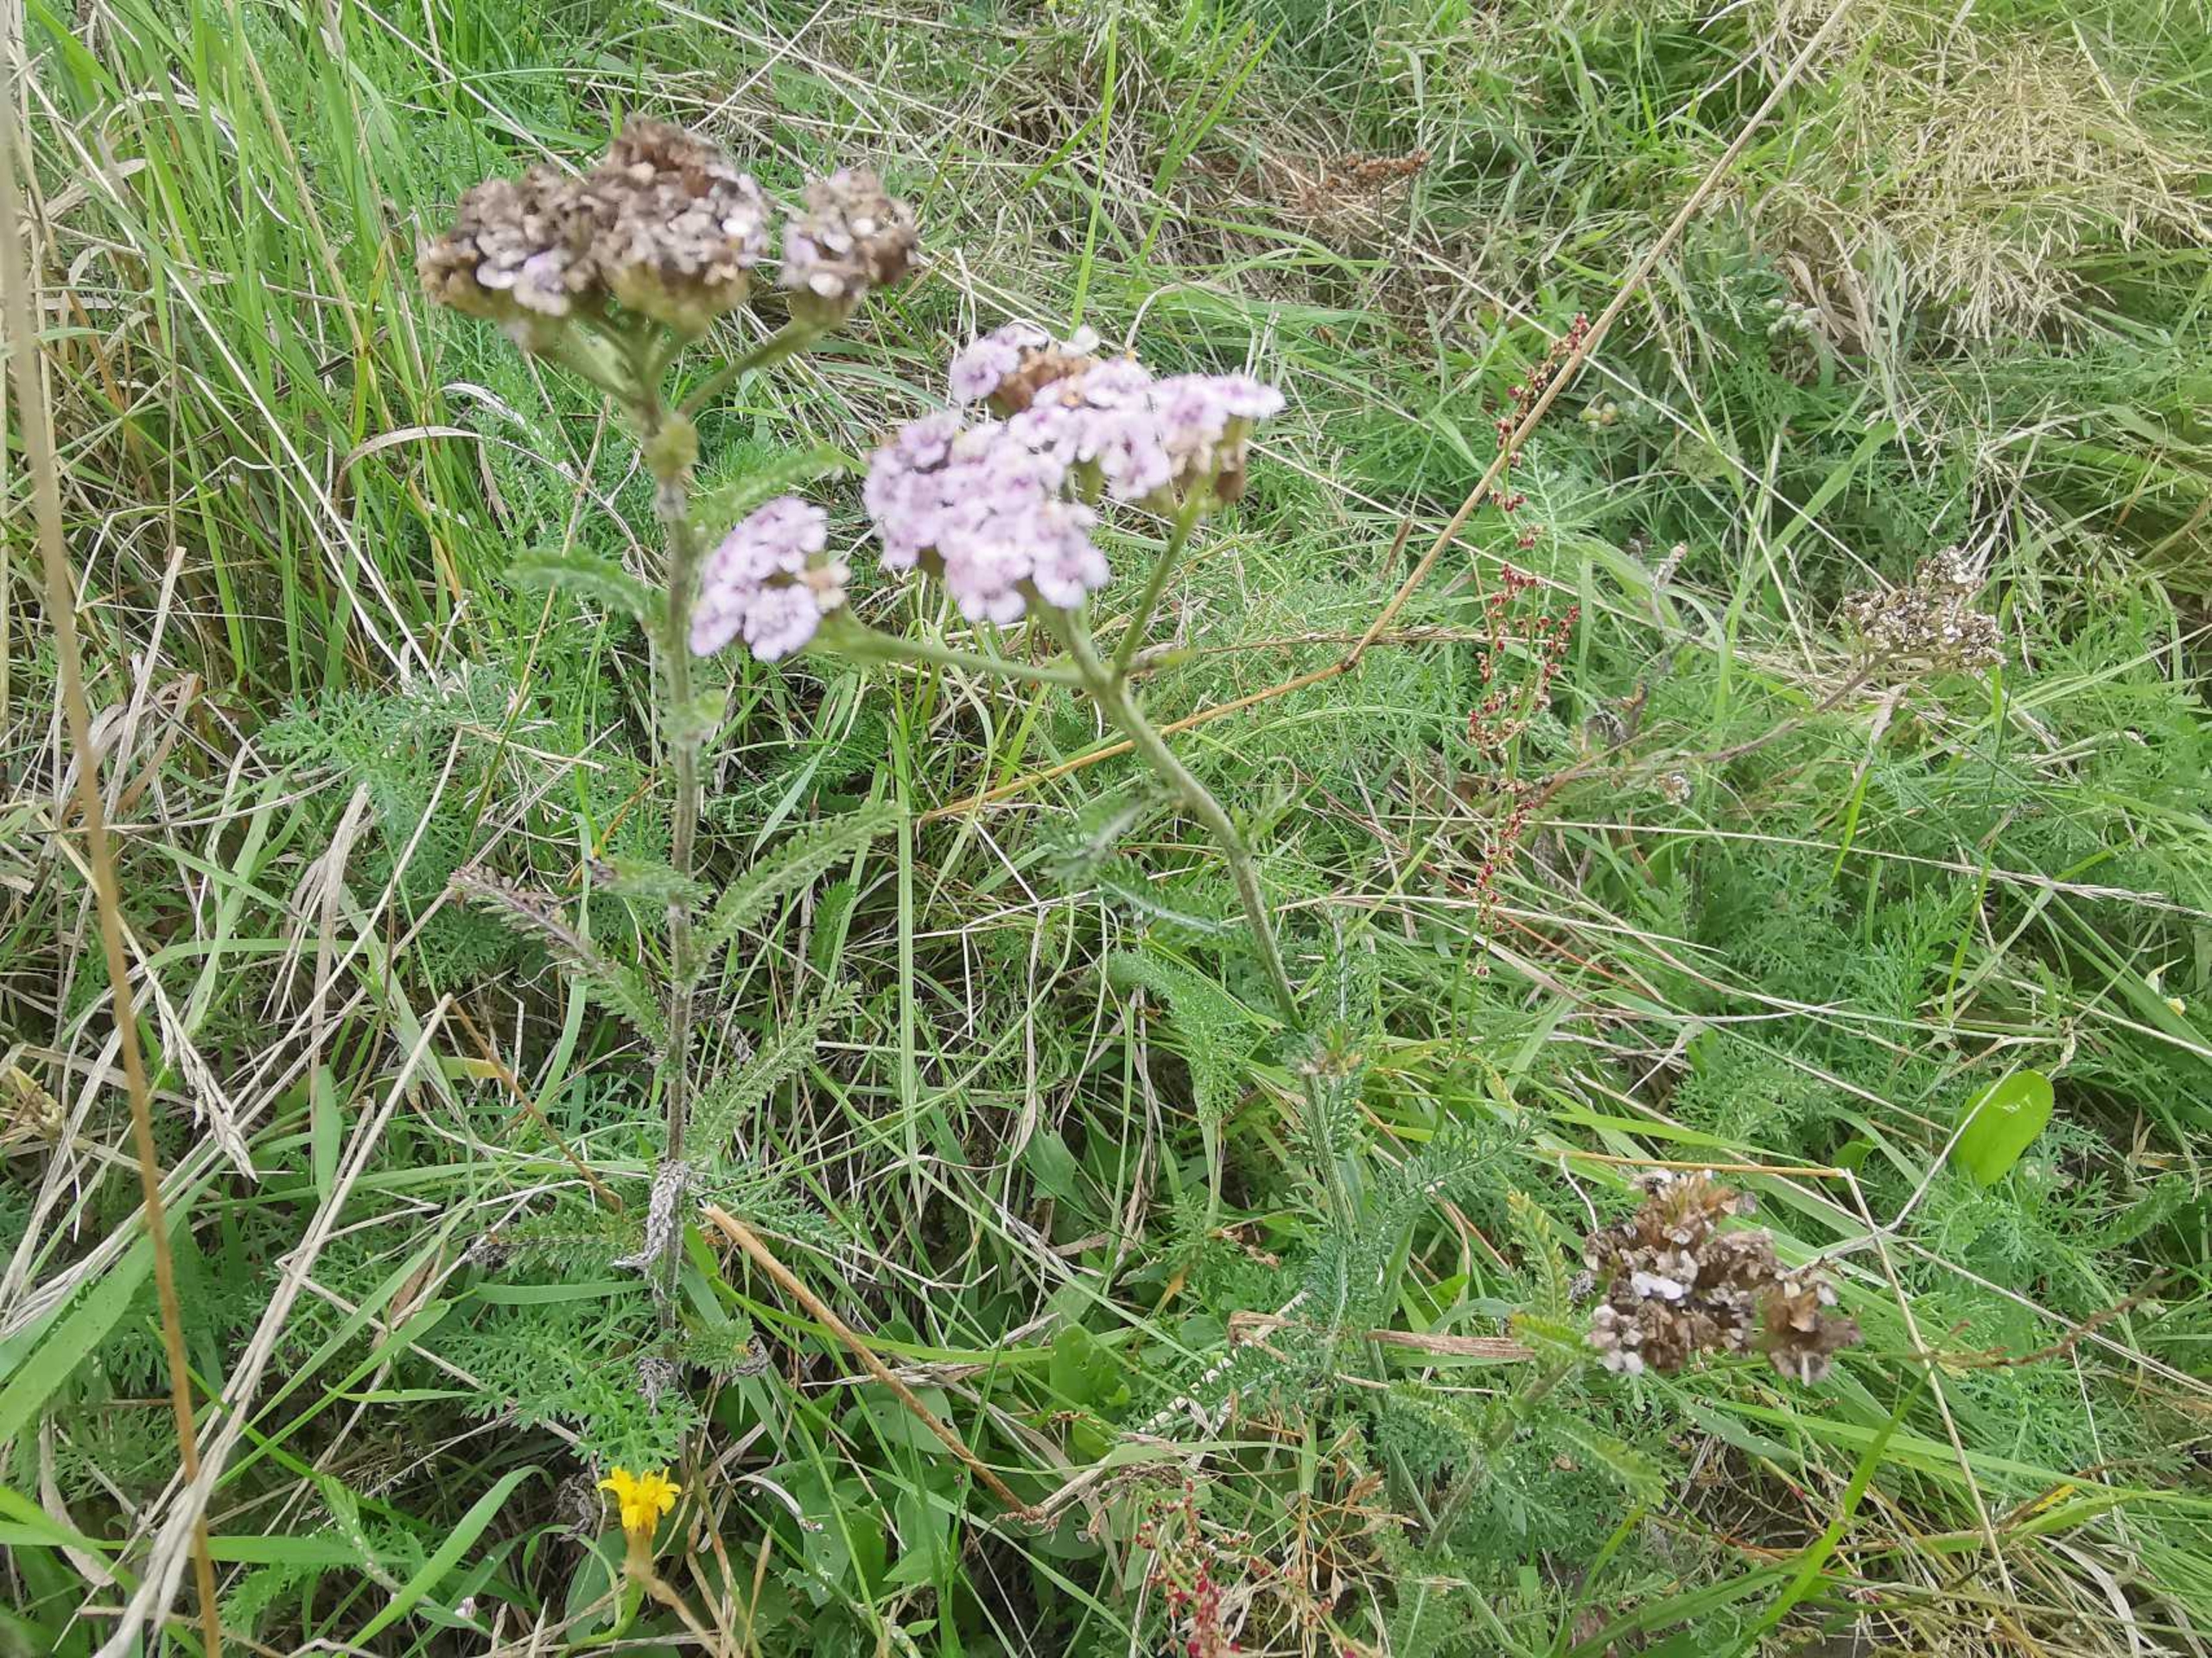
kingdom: Plantae
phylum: Tracheophyta
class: Magnoliopsida
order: Asterales
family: Asteraceae
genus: Achillea
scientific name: Achillea millefolium
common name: Almindelig røllike
